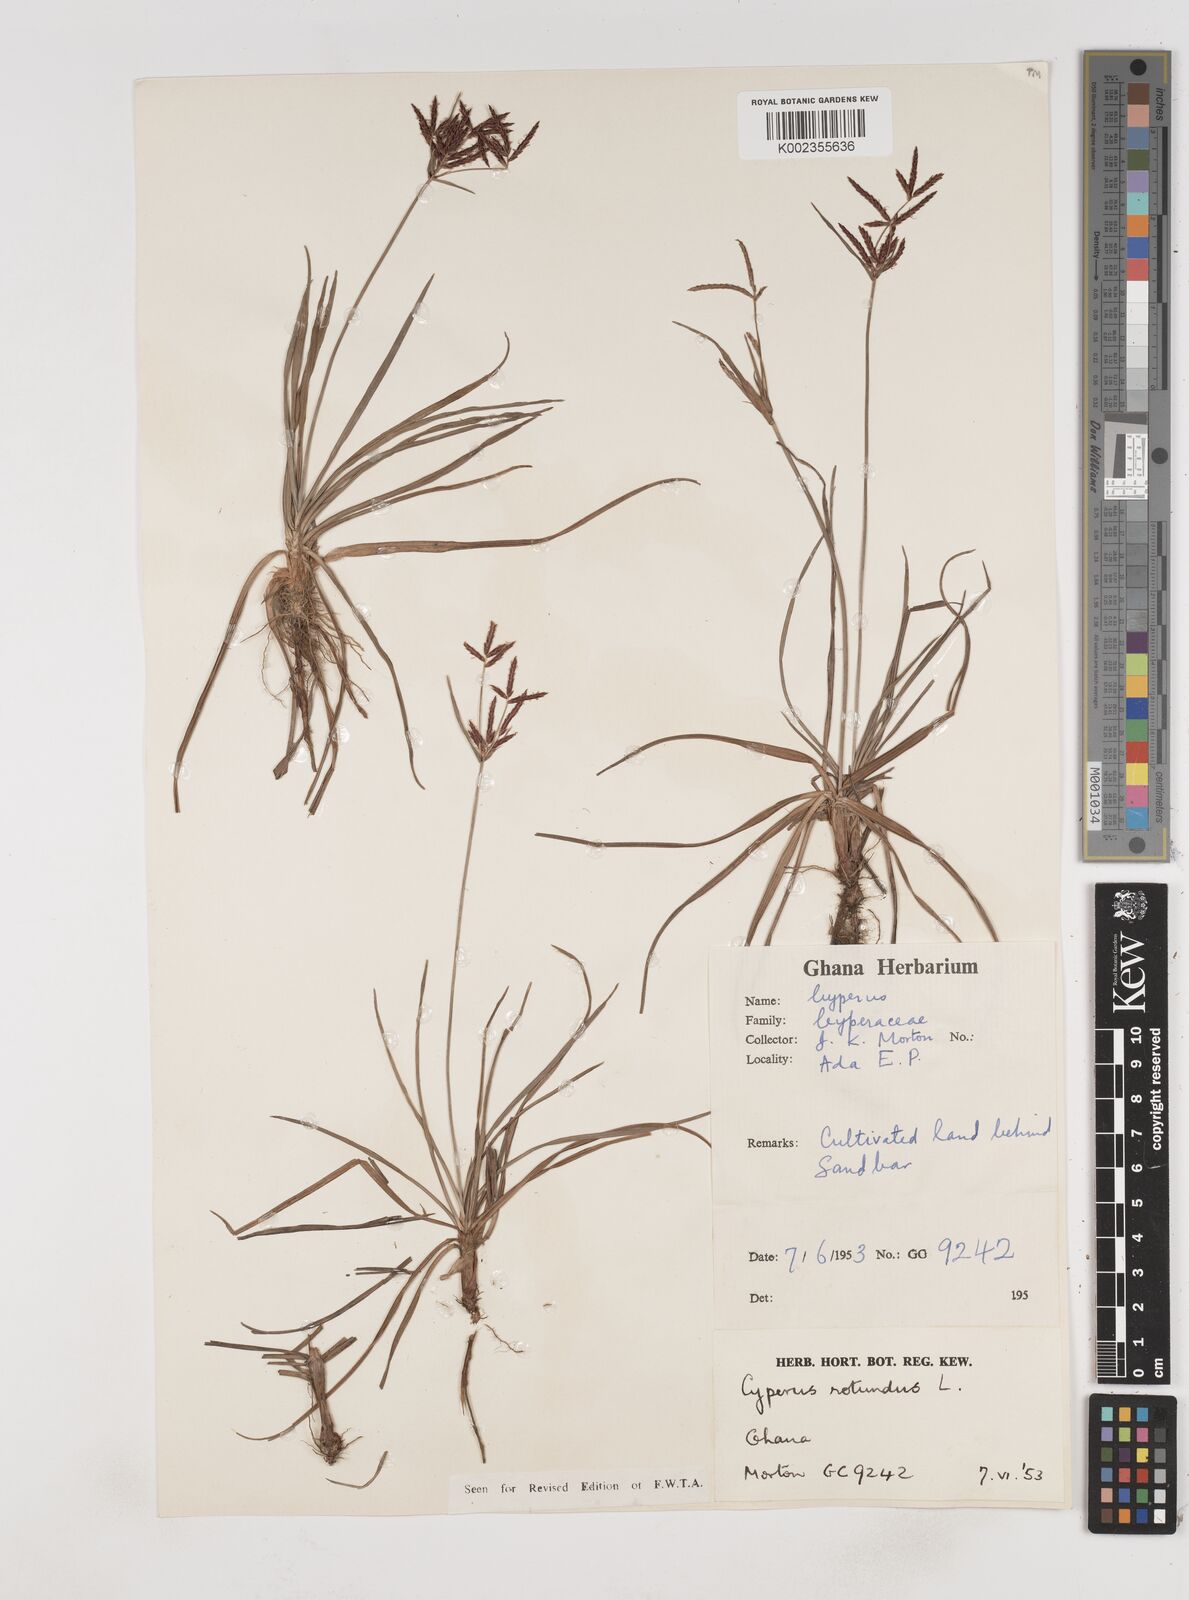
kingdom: Plantae
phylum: Tracheophyta
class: Liliopsida
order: Poales
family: Cyperaceae
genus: Cyperus
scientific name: Cyperus rotundus
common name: Nutgrass
